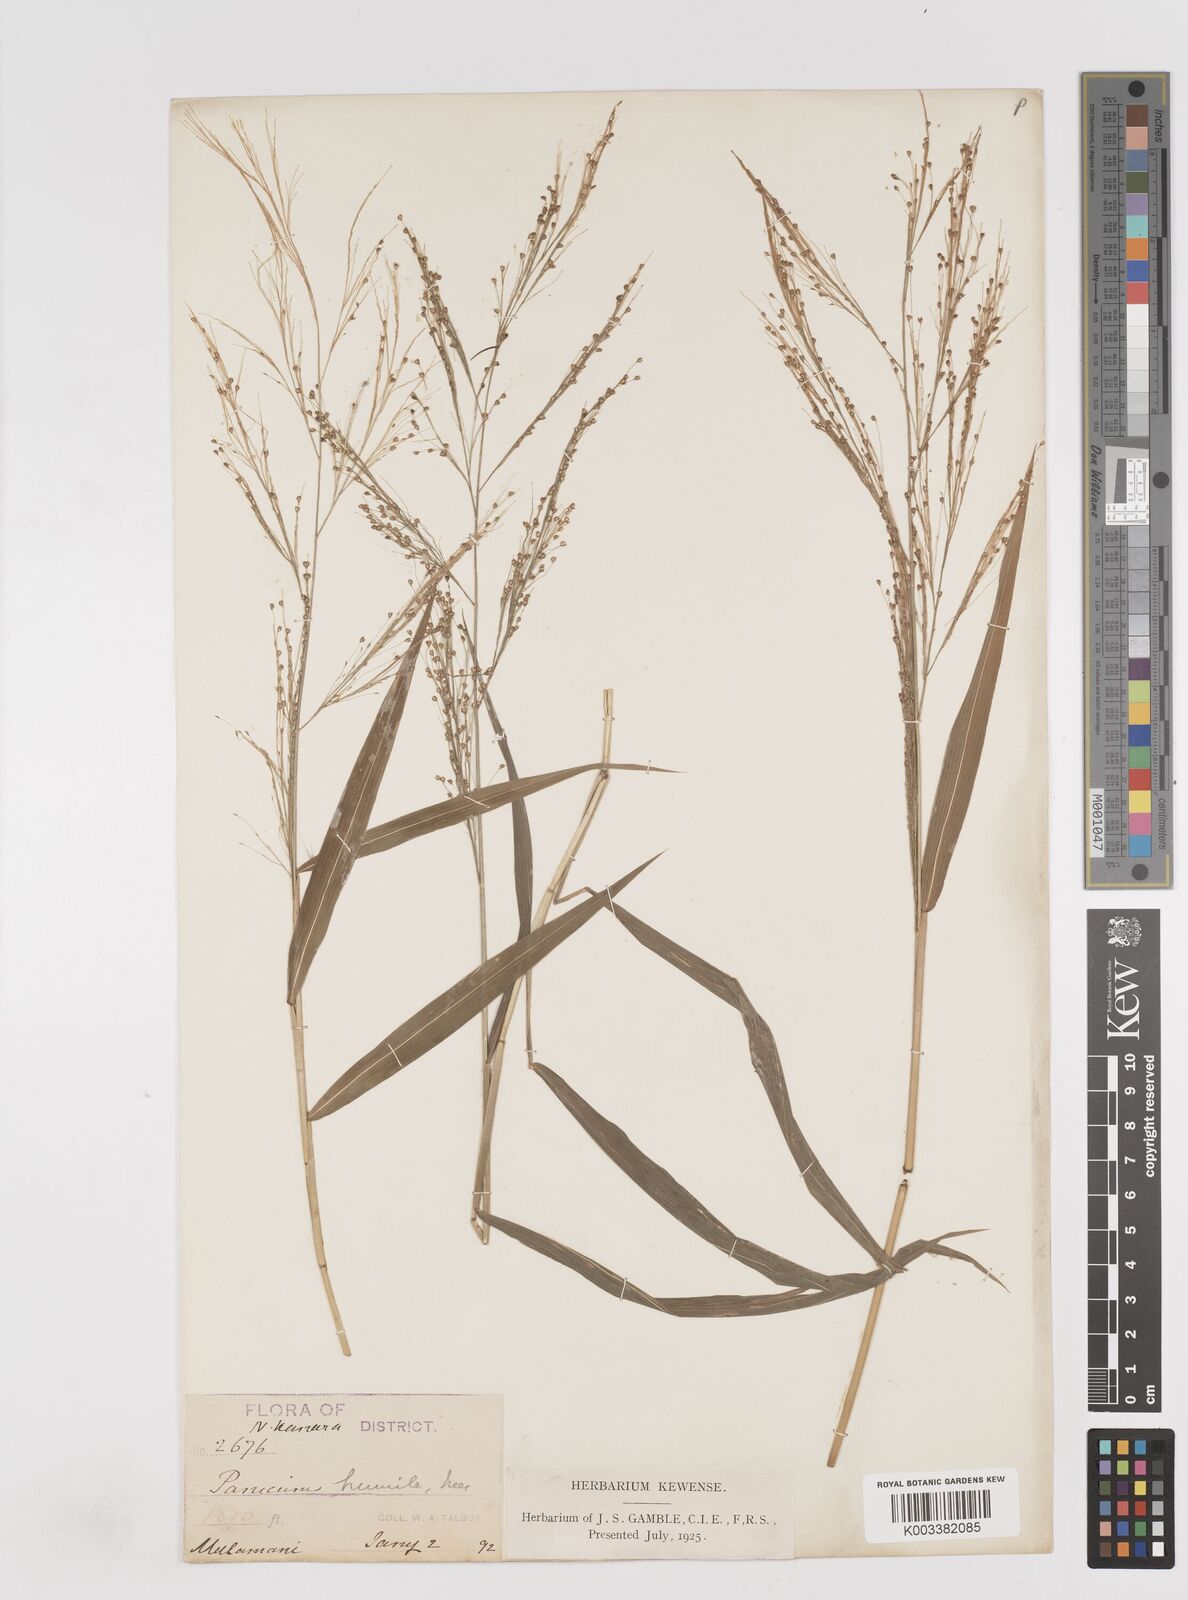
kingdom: Plantae
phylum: Tracheophyta
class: Liliopsida
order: Poales
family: Poaceae
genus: Cyrtococcum
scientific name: Cyrtococcum longipes
